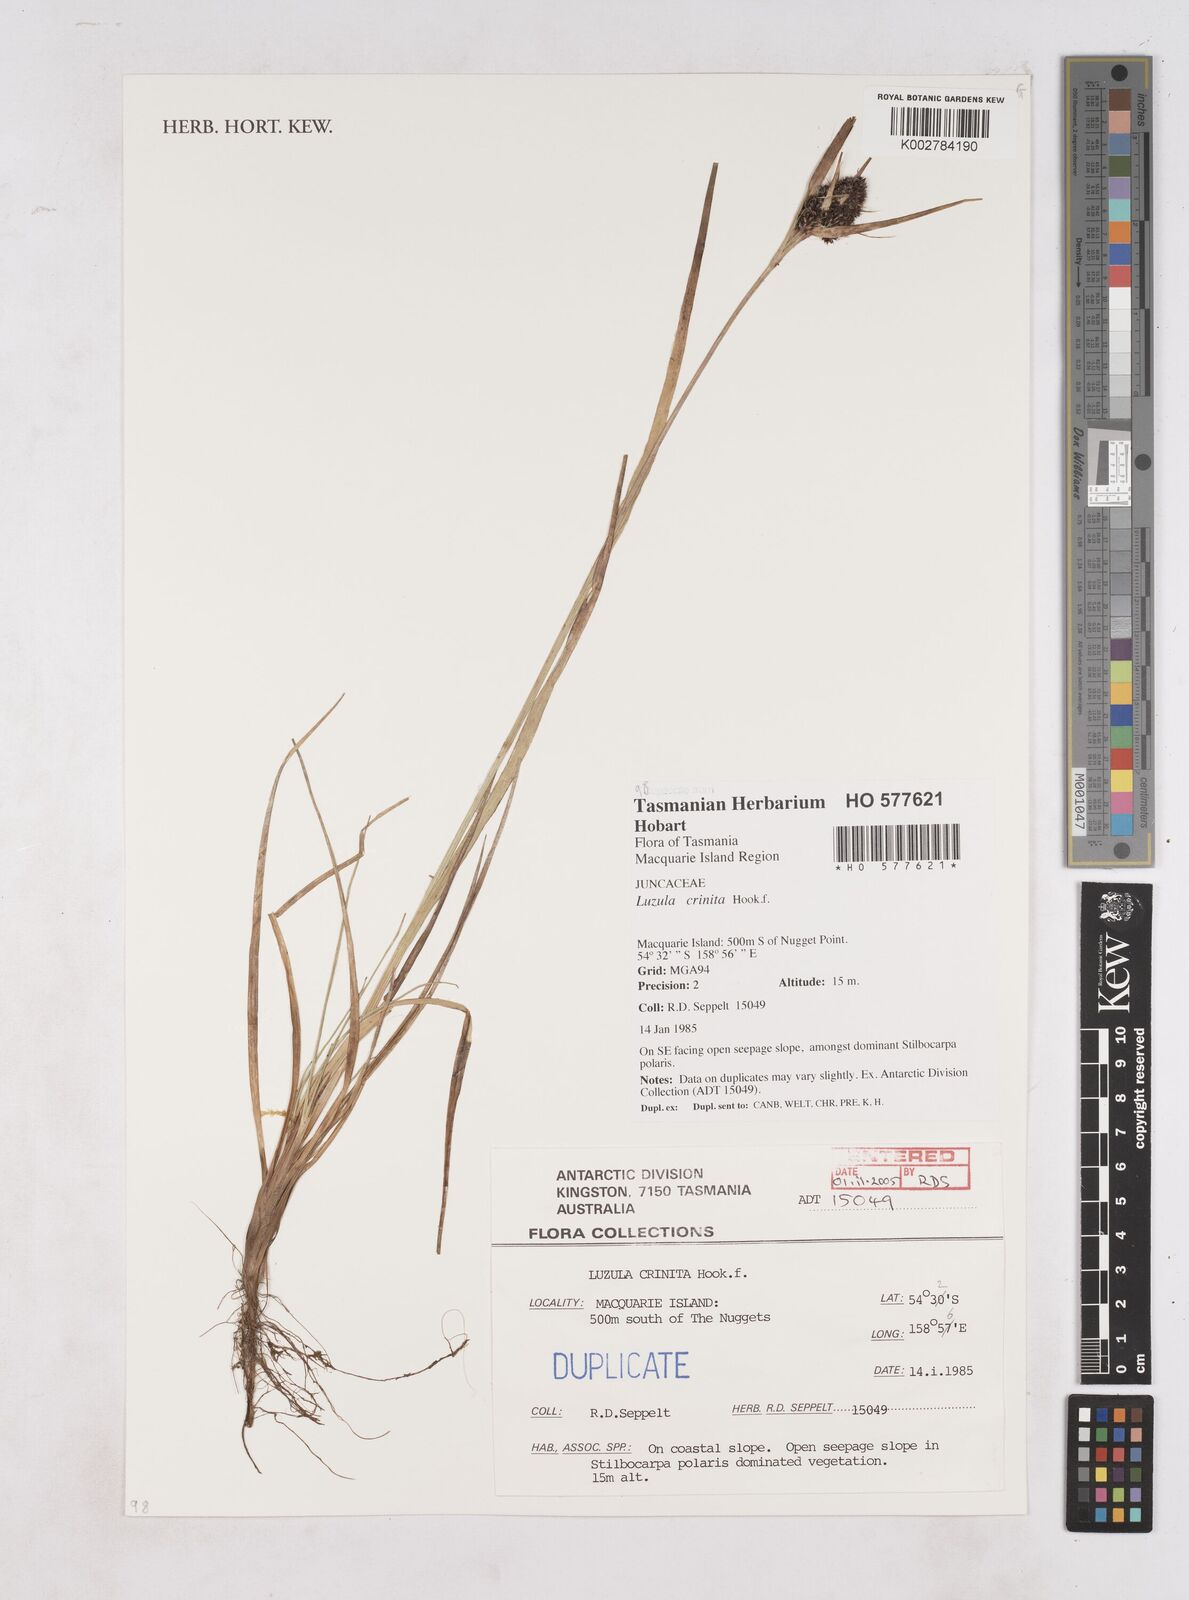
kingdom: Plantae
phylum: Tracheophyta
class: Liliopsida
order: Poales
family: Juncaceae
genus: Luzula
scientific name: Luzula campestris
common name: Field wood-rush
